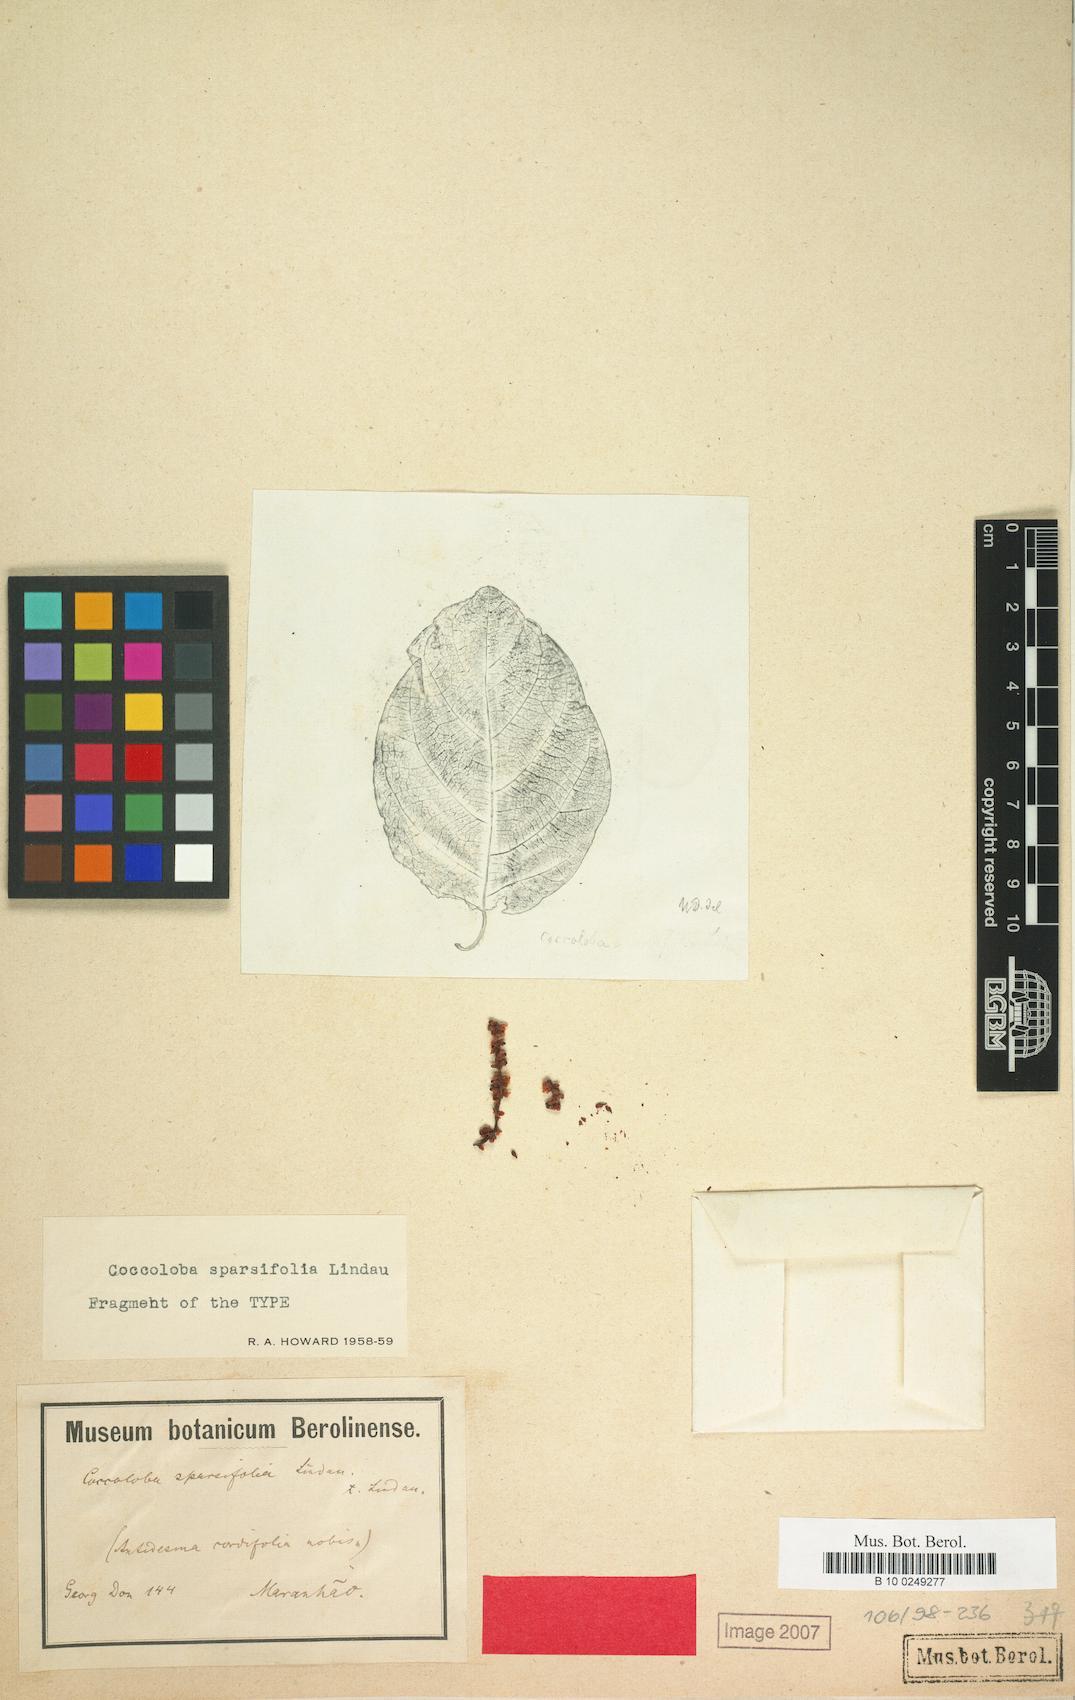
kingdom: Plantae
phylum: Tracheophyta
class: Magnoliopsida
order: Caryophyllales
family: Polygonaceae
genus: Coccoloba
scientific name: Coccoloba ascendens
